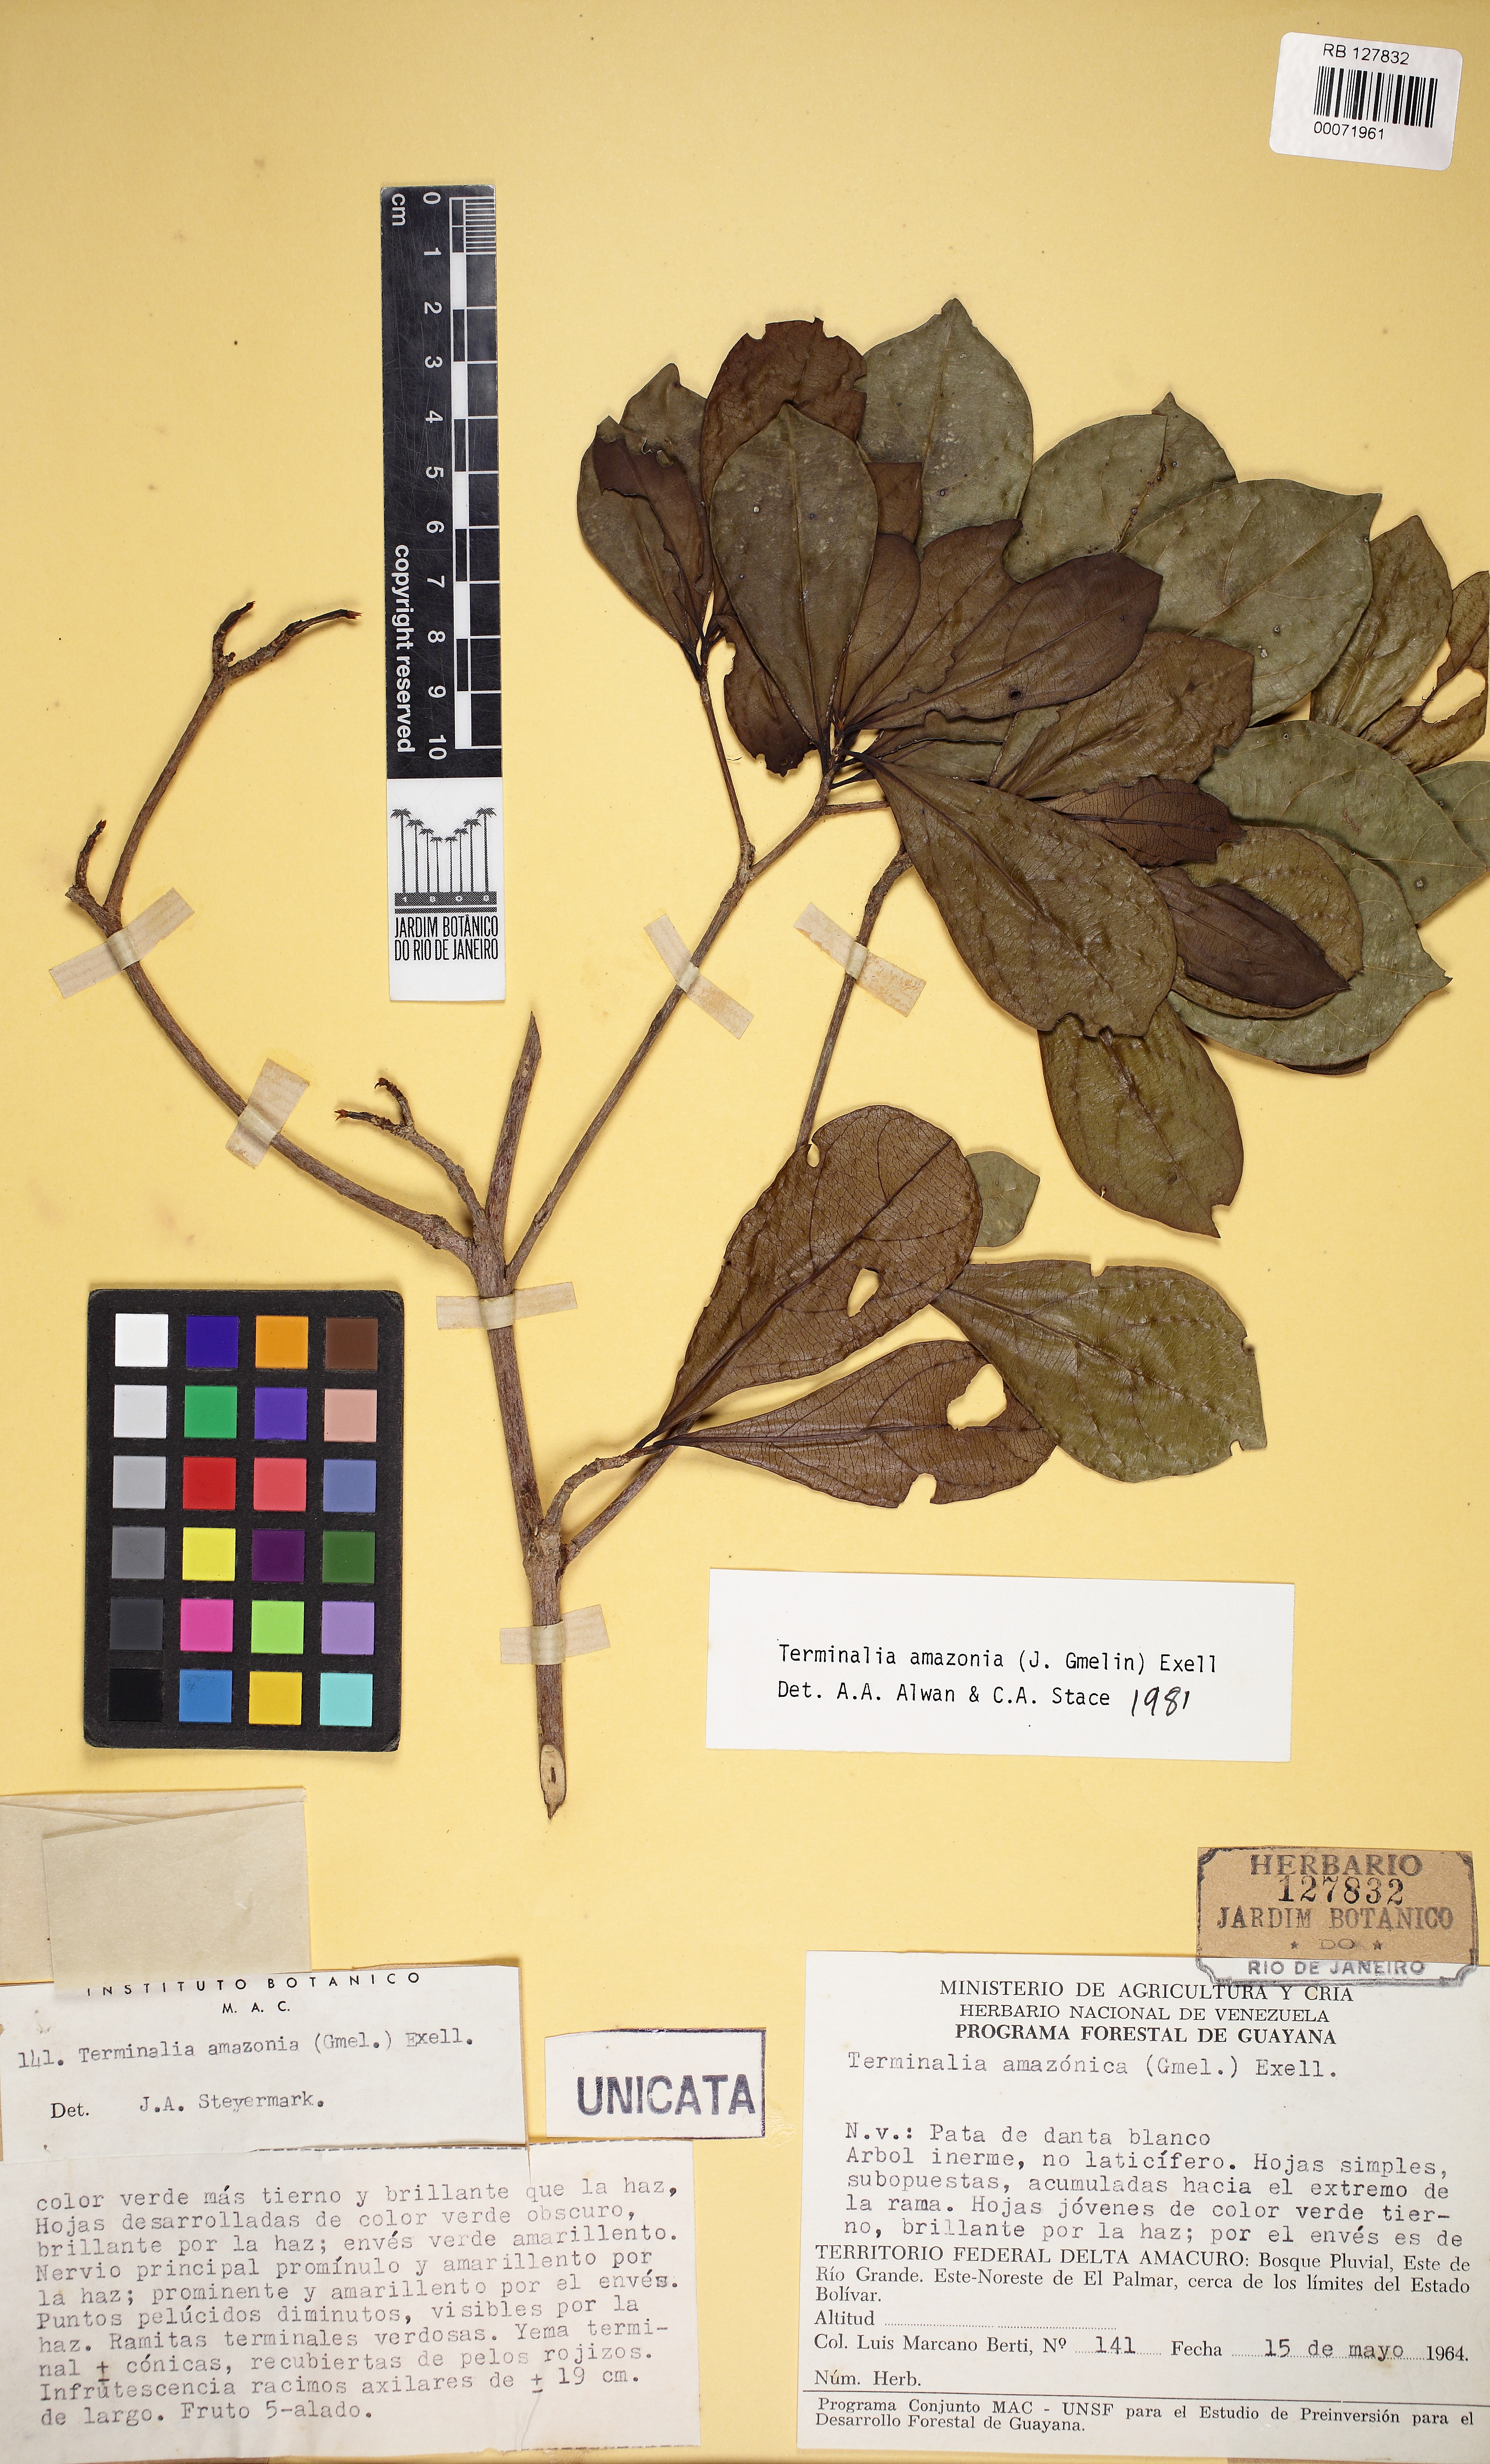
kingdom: Plantae
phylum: Tracheophyta
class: Magnoliopsida
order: Myrtales
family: Combretaceae
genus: Terminalia
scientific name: Terminalia amazonica
